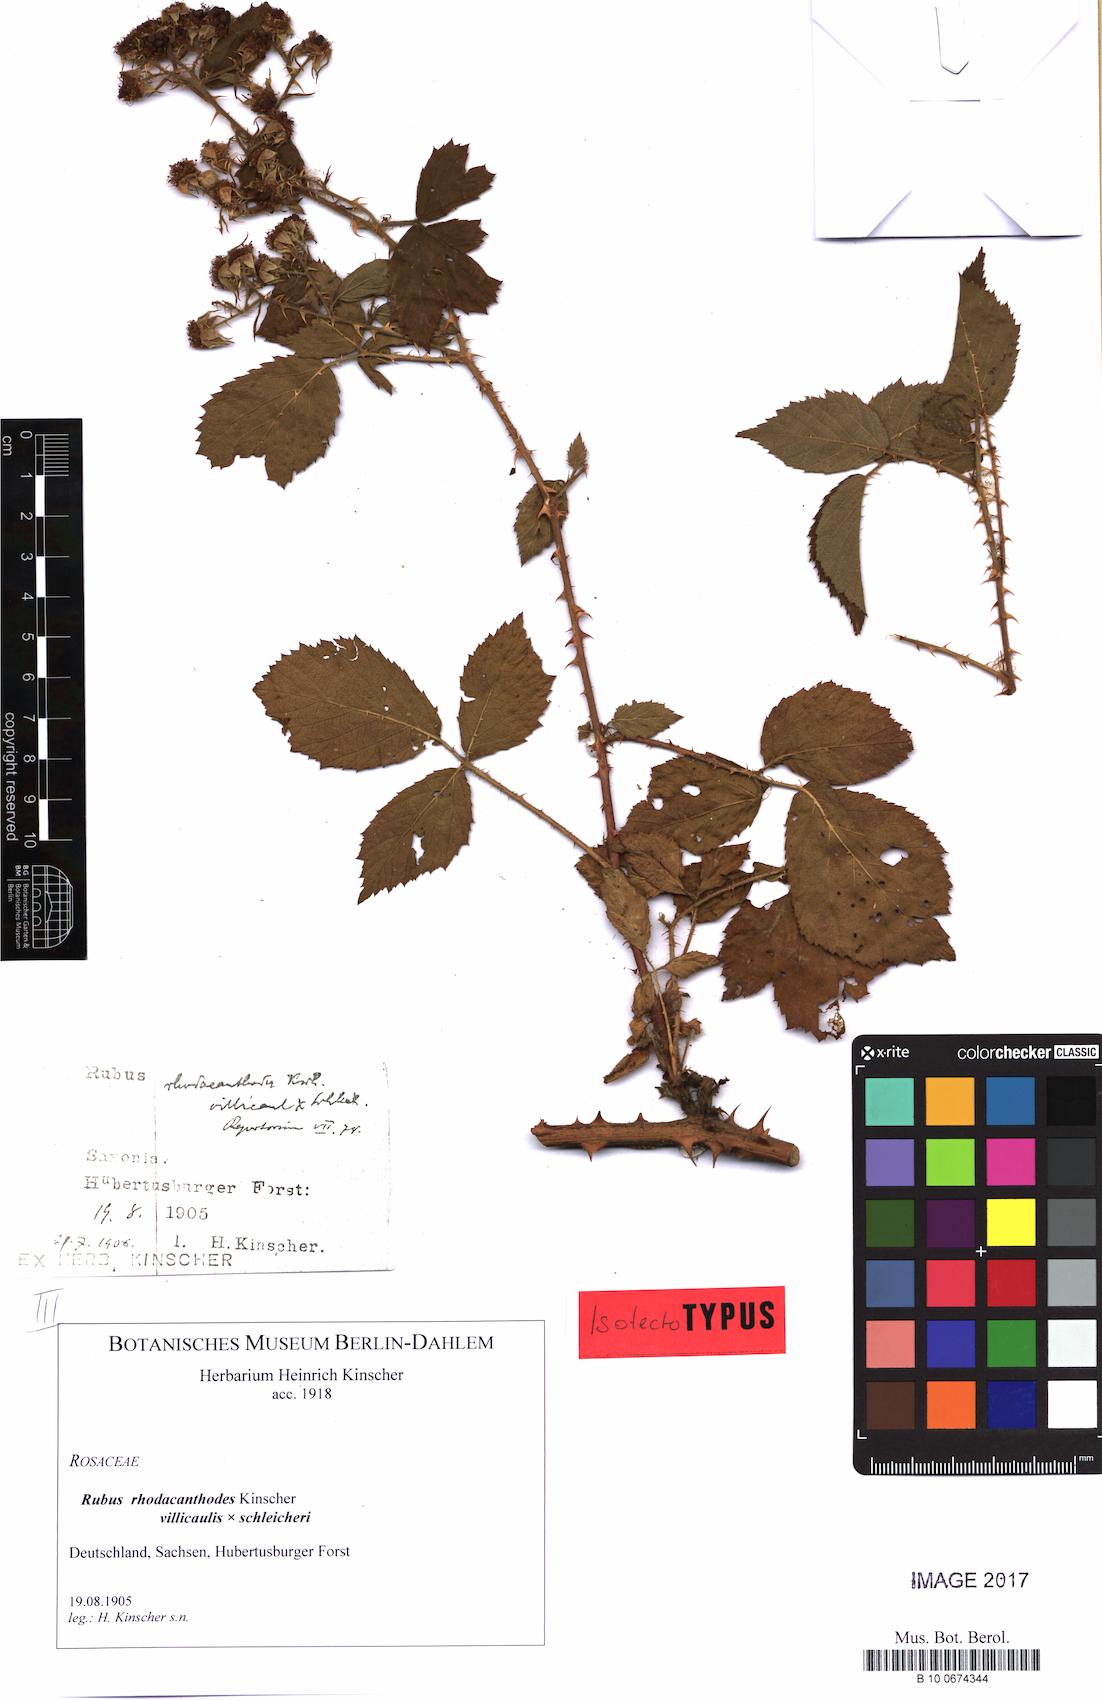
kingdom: Plantae
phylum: Tracheophyta
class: Magnoliopsida
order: Rosales
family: Rosaceae
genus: Rubus
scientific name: Rubus rhodacanthodes
